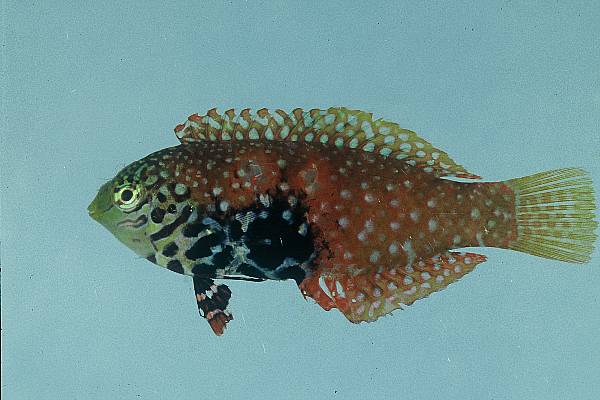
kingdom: Animalia
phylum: Chordata
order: Perciformes
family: Labridae
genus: Macropharyngodon
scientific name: Macropharyngodon bipartitus
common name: Divided wrasse
